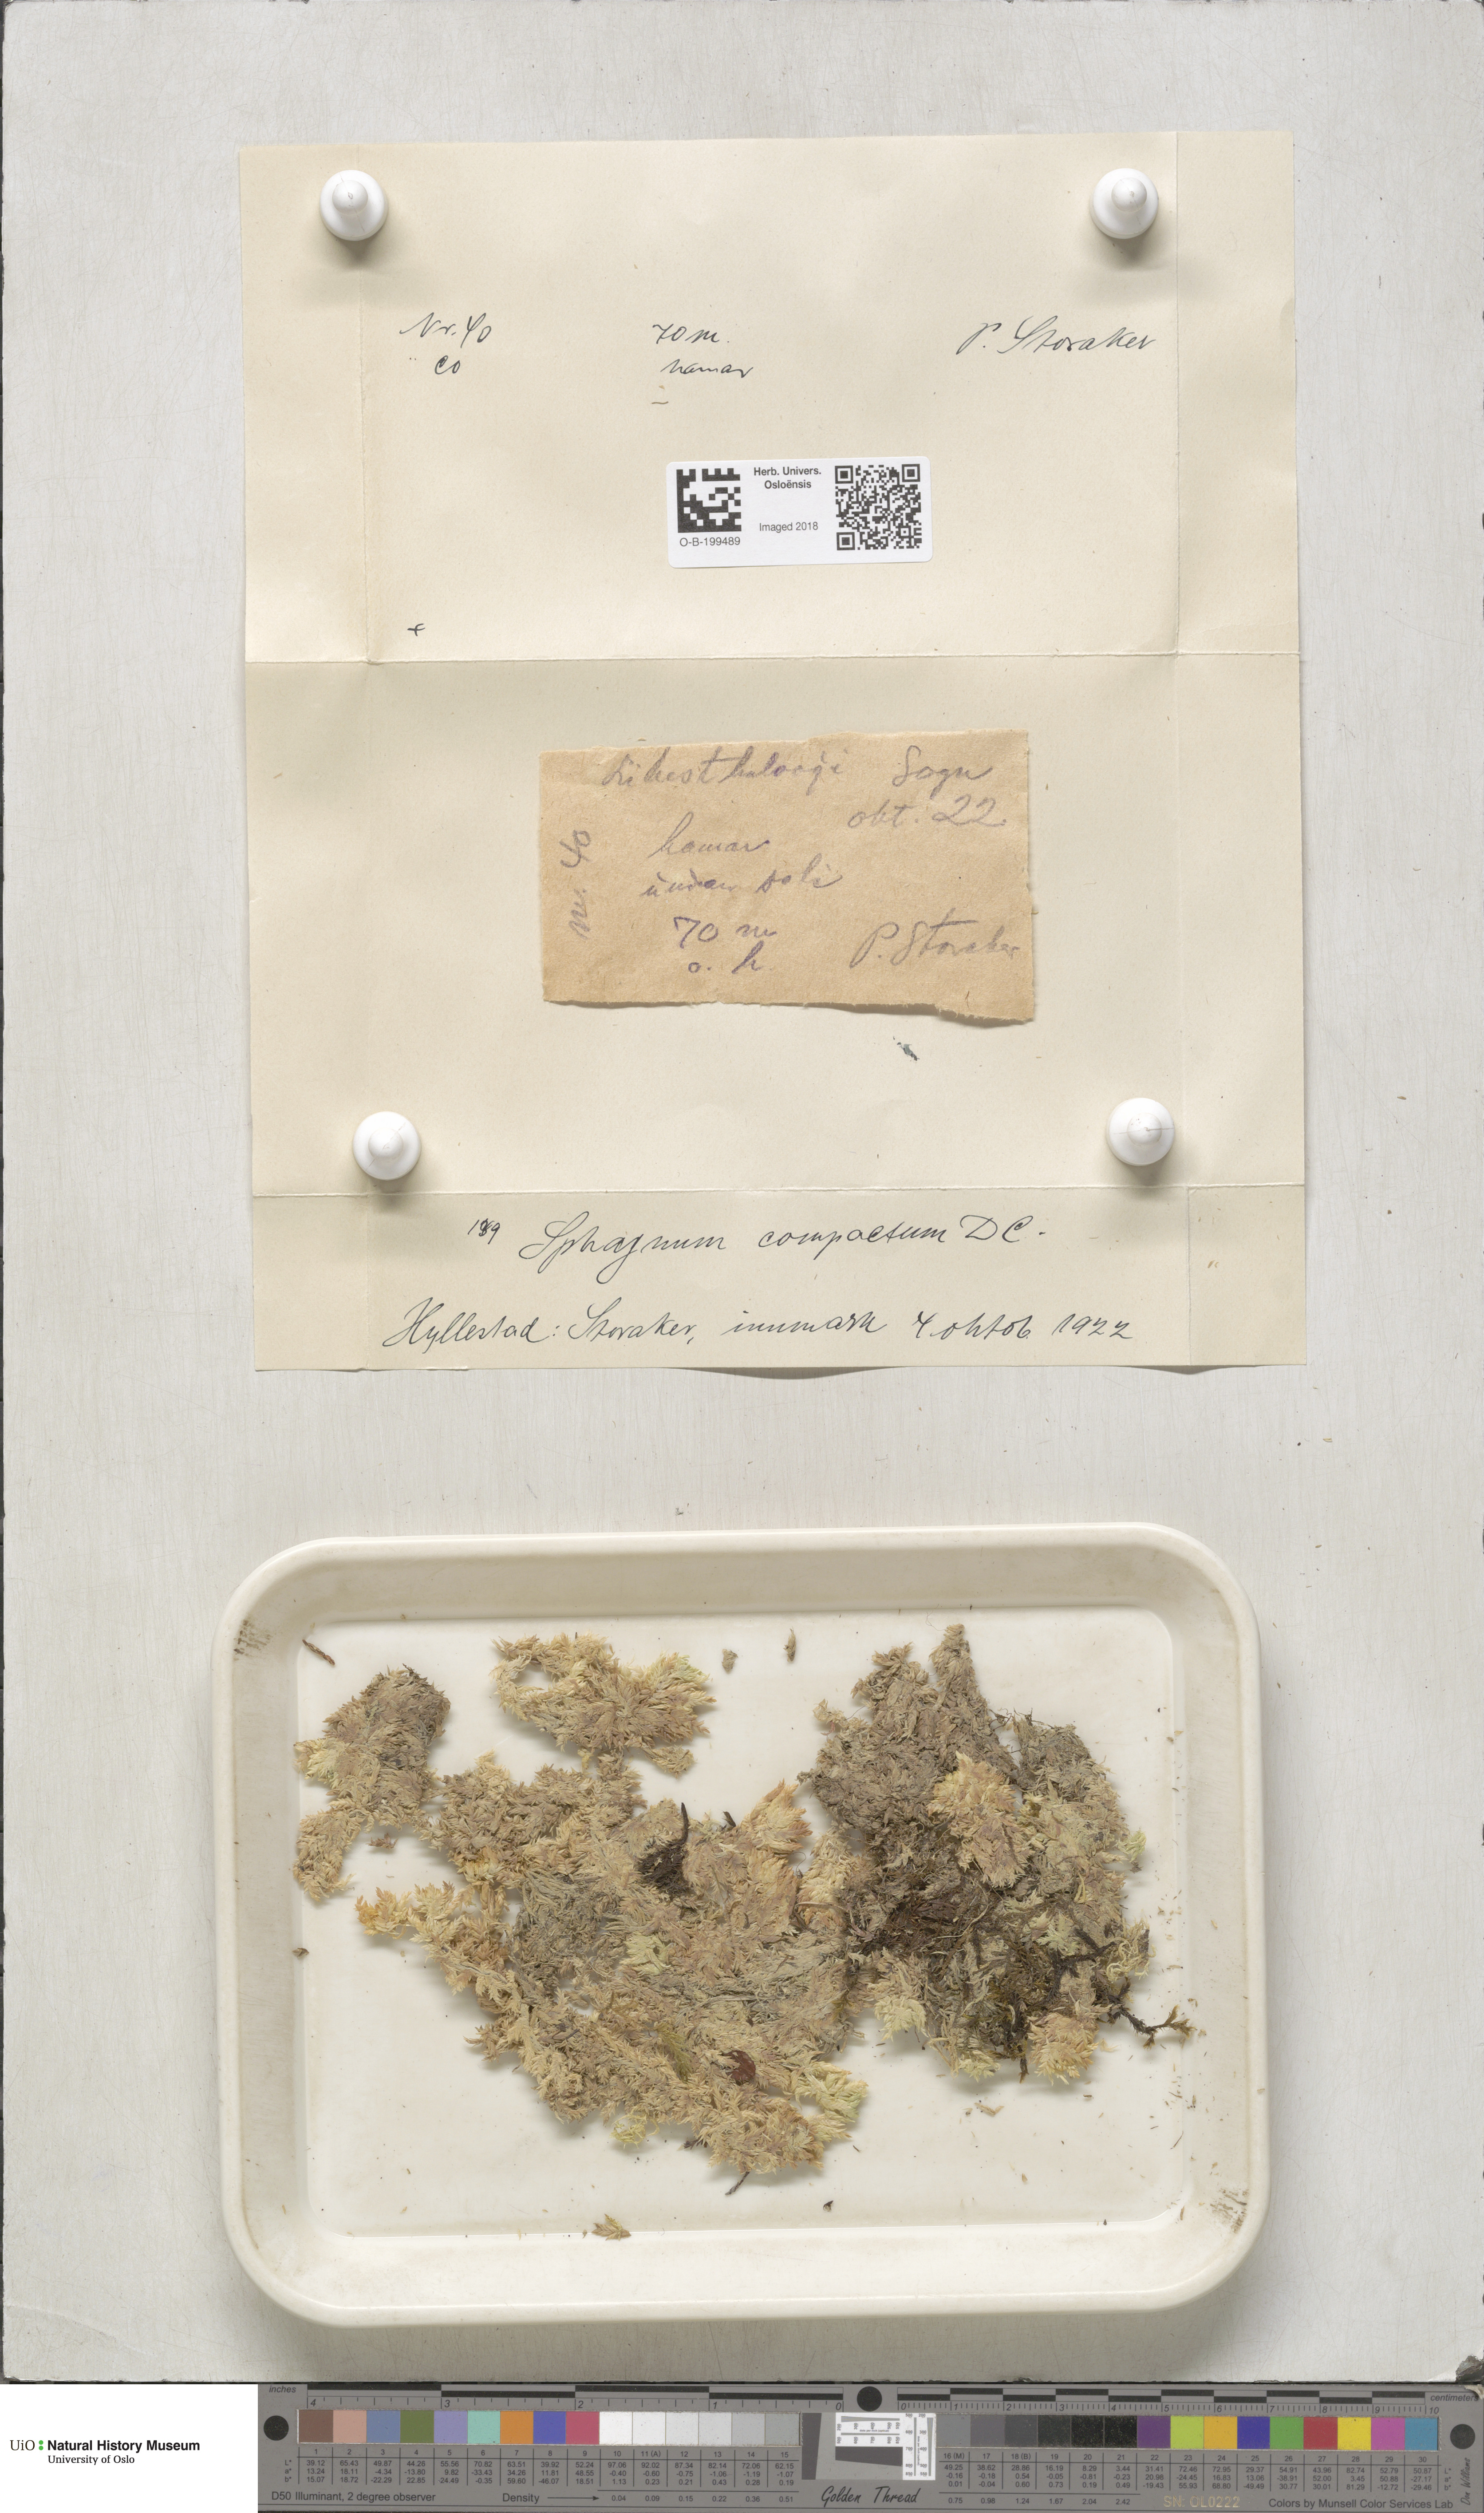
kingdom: Plantae
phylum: Bryophyta
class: Sphagnopsida
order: Sphagnales
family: Sphagnaceae
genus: Sphagnum
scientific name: Sphagnum compactum
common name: Compact peat moss
